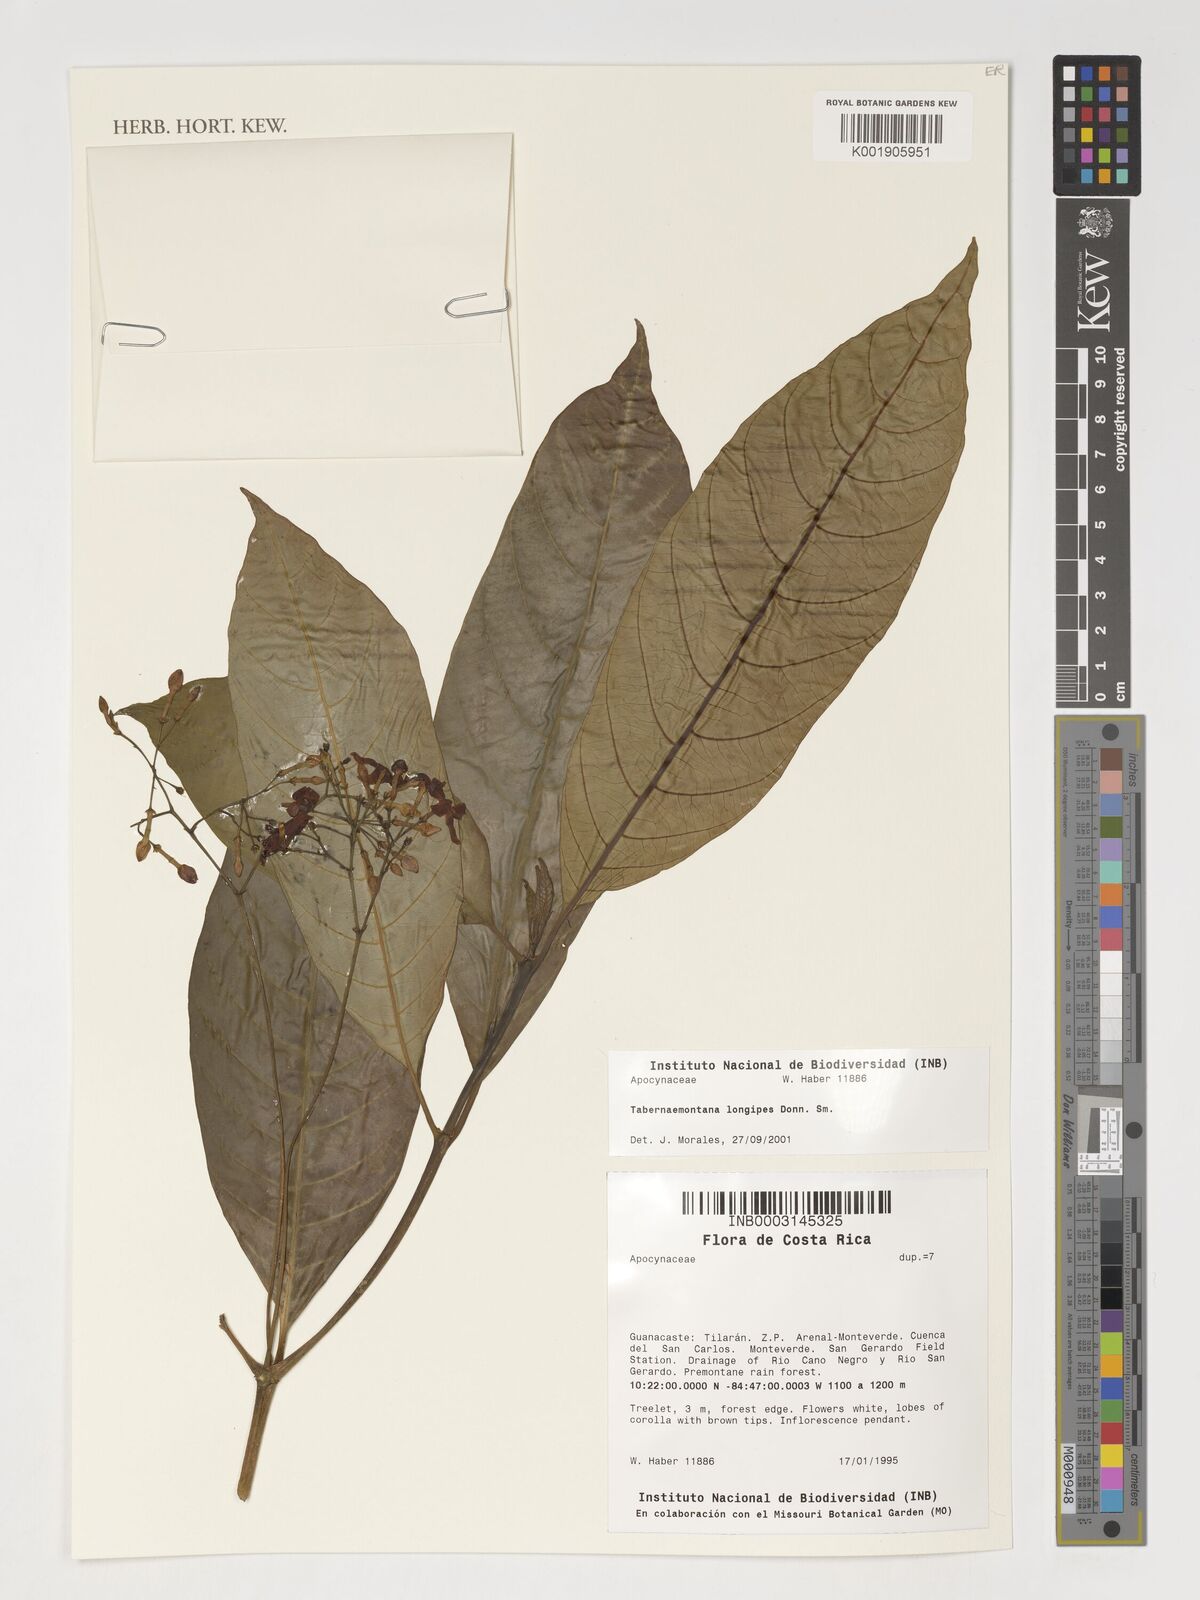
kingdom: Plantae
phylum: Tracheophyta
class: Magnoliopsida
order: Gentianales
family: Apocynaceae
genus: Tabernaemontana
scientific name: Tabernaemontana longipes
